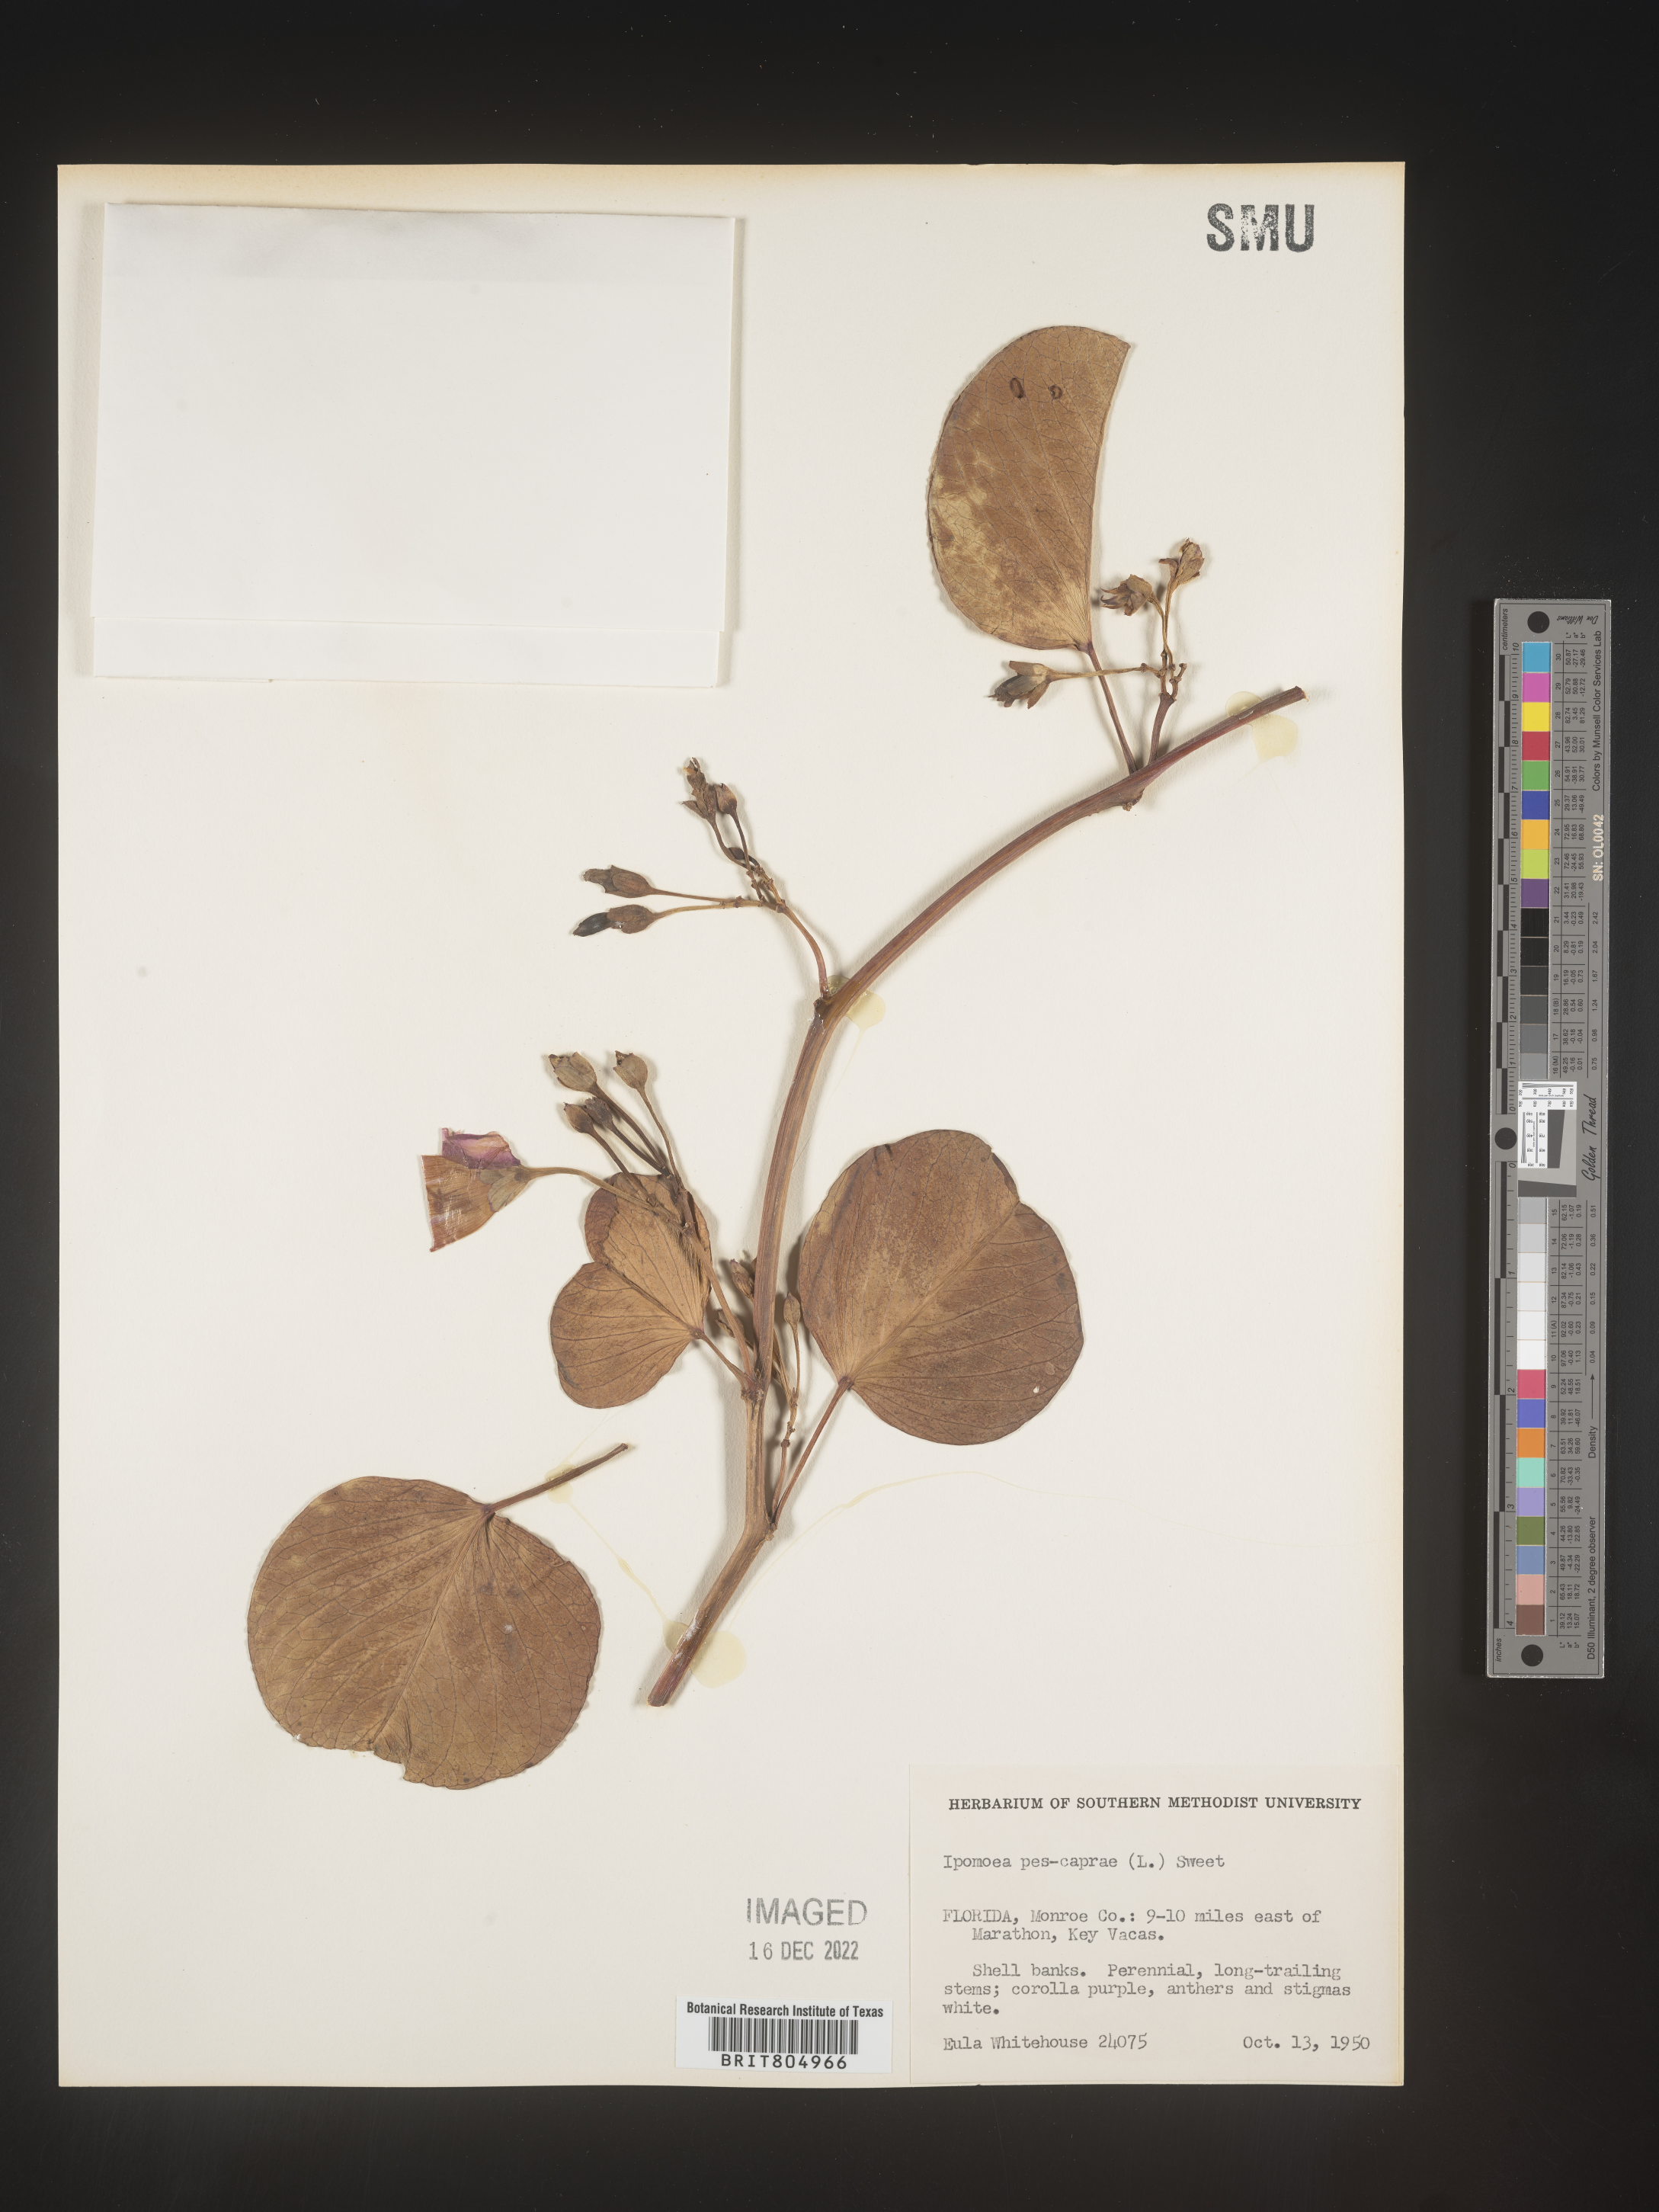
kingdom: Plantae
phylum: Tracheophyta
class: Magnoliopsida
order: Solanales
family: Convolvulaceae
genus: Ipomoea
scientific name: Ipomoea pes-caprae
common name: Beach morning glory
